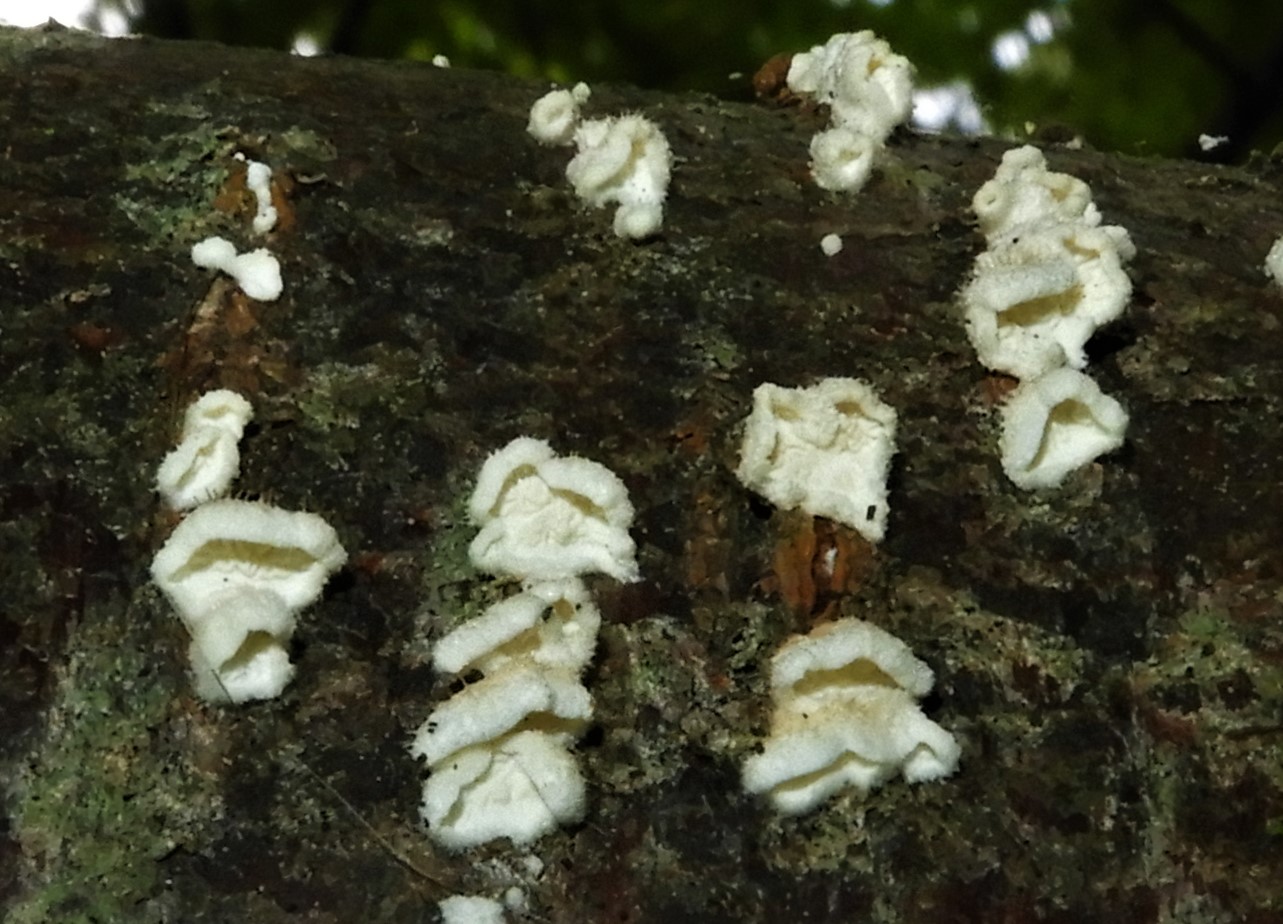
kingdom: Fungi
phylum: Basidiomycota
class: Agaricomycetes
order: Amylocorticiales
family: Amylocorticiaceae
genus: Plicaturopsis
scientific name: Plicaturopsis crispa
